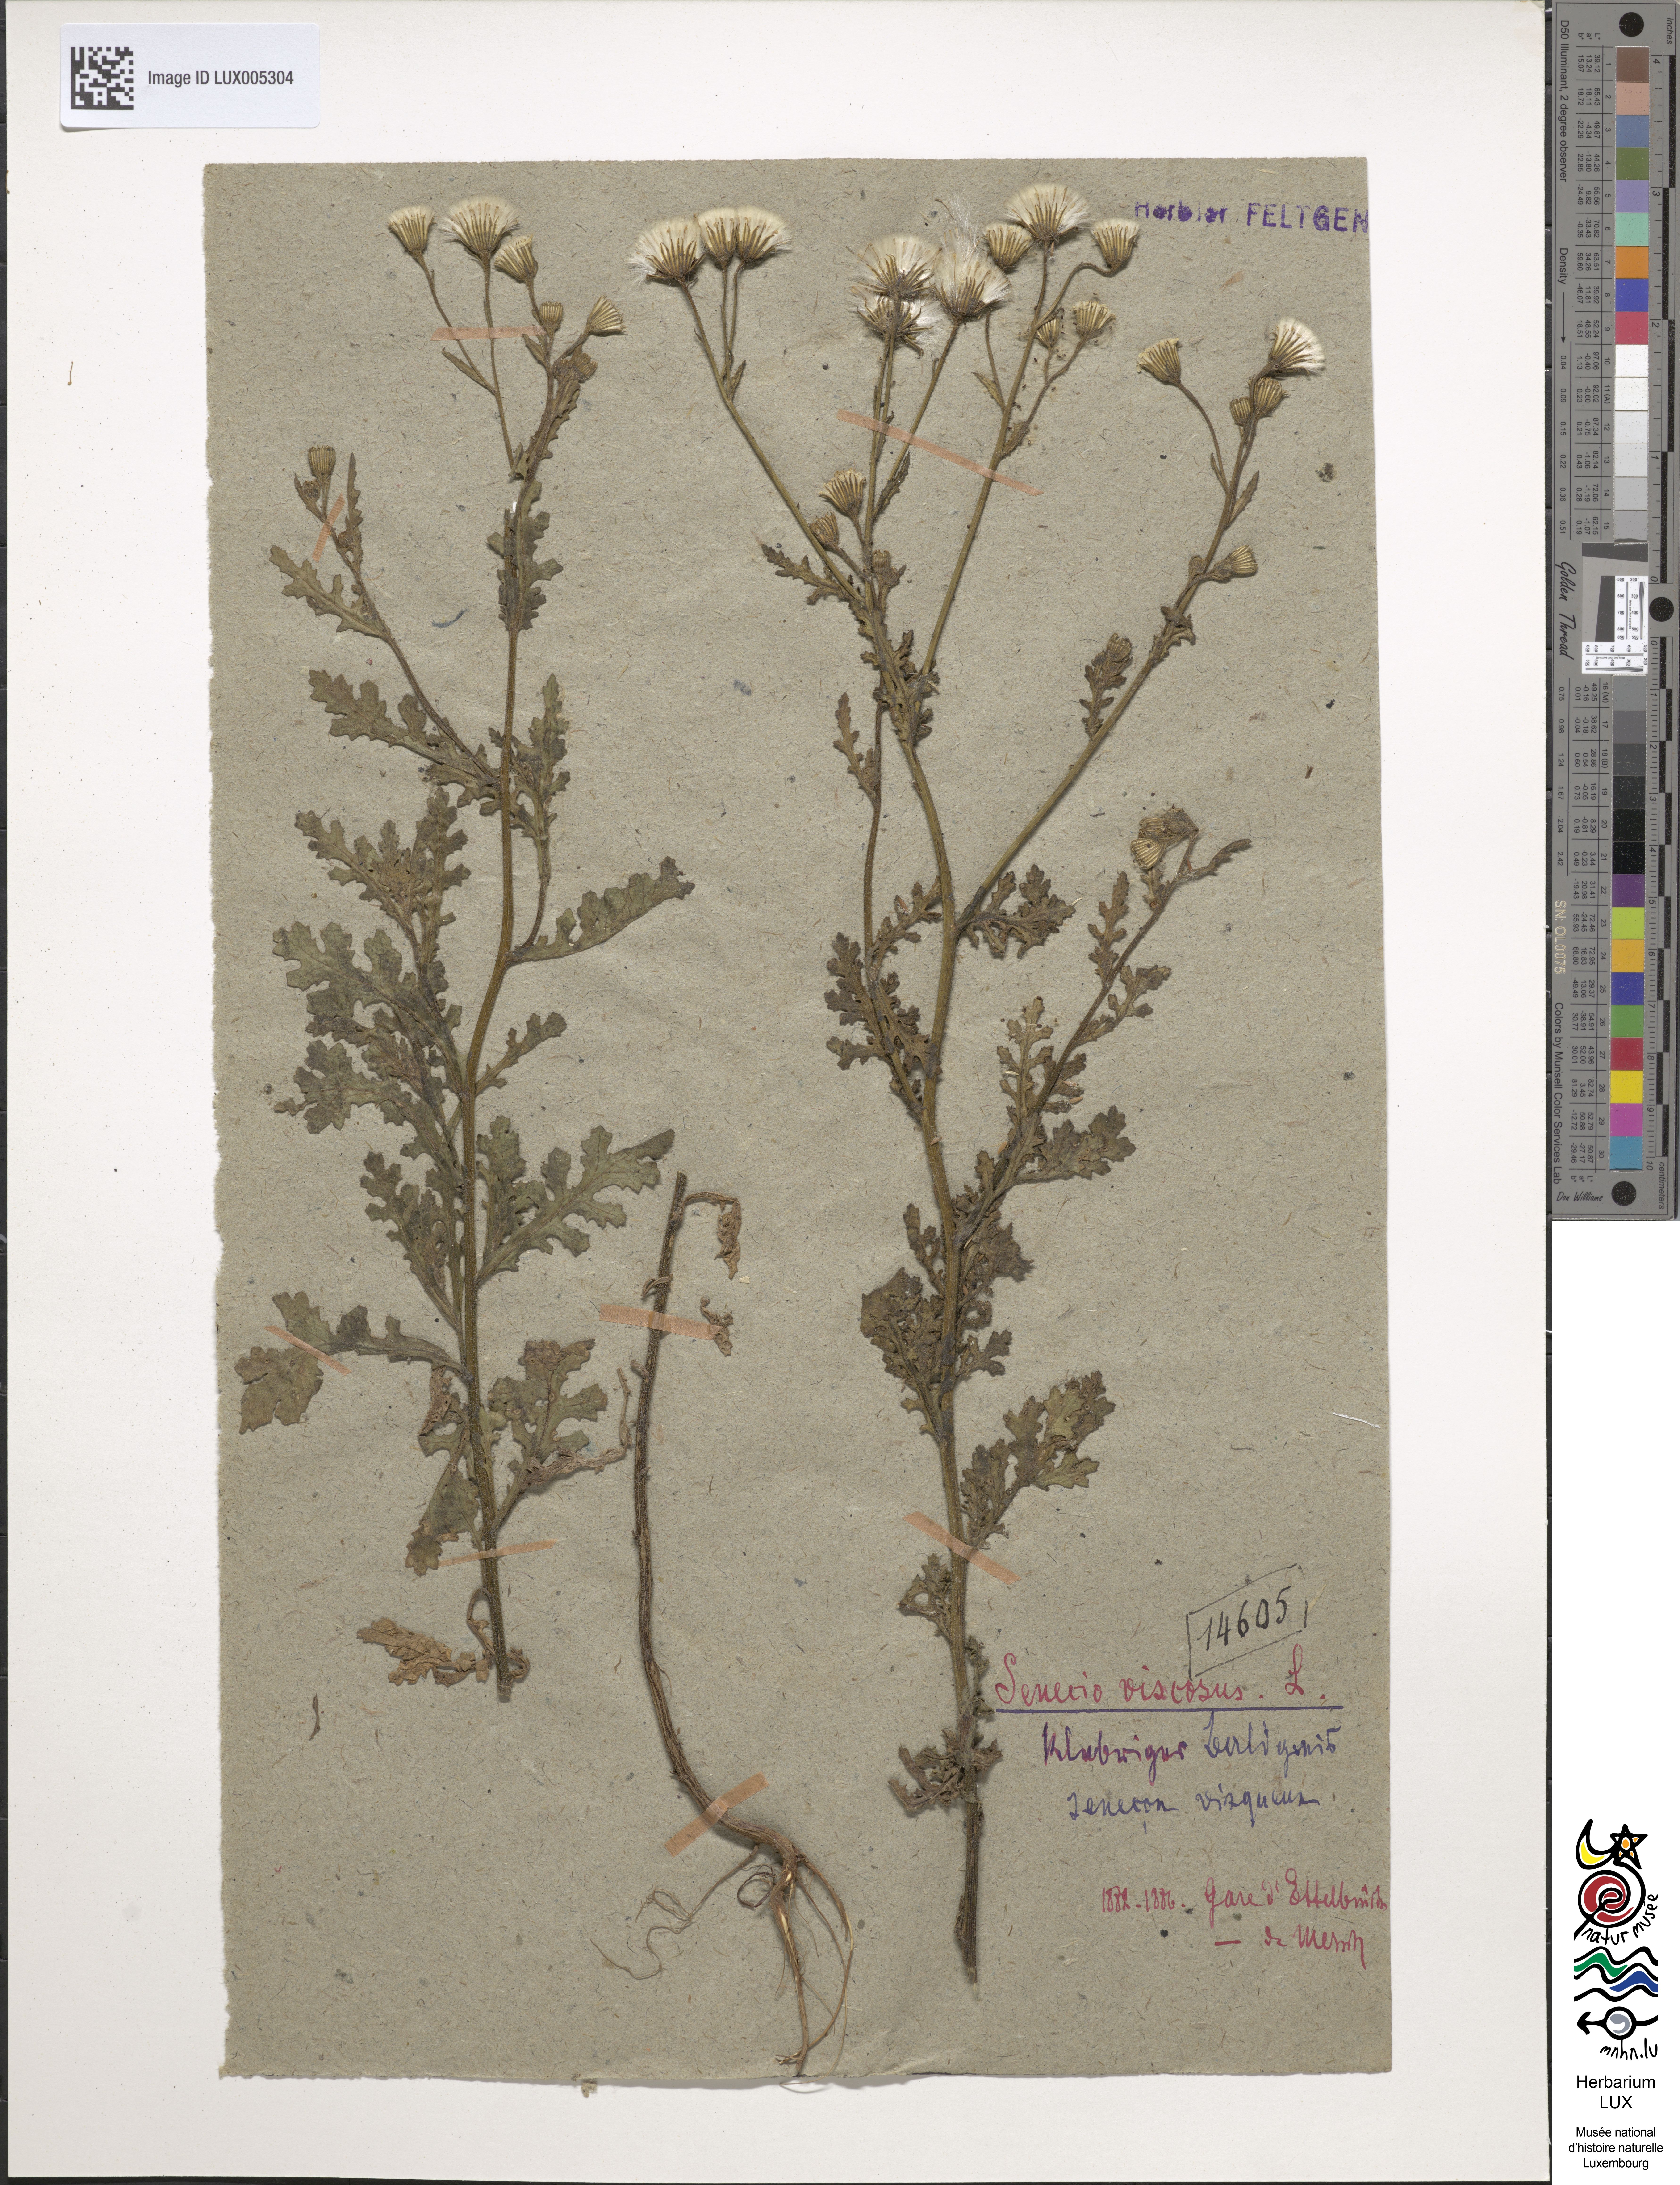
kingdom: Plantae
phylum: Tracheophyta
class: Magnoliopsida
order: Asterales
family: Asteraceae
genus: Senecio
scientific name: Senecio viscosus
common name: Sticky groundsel
